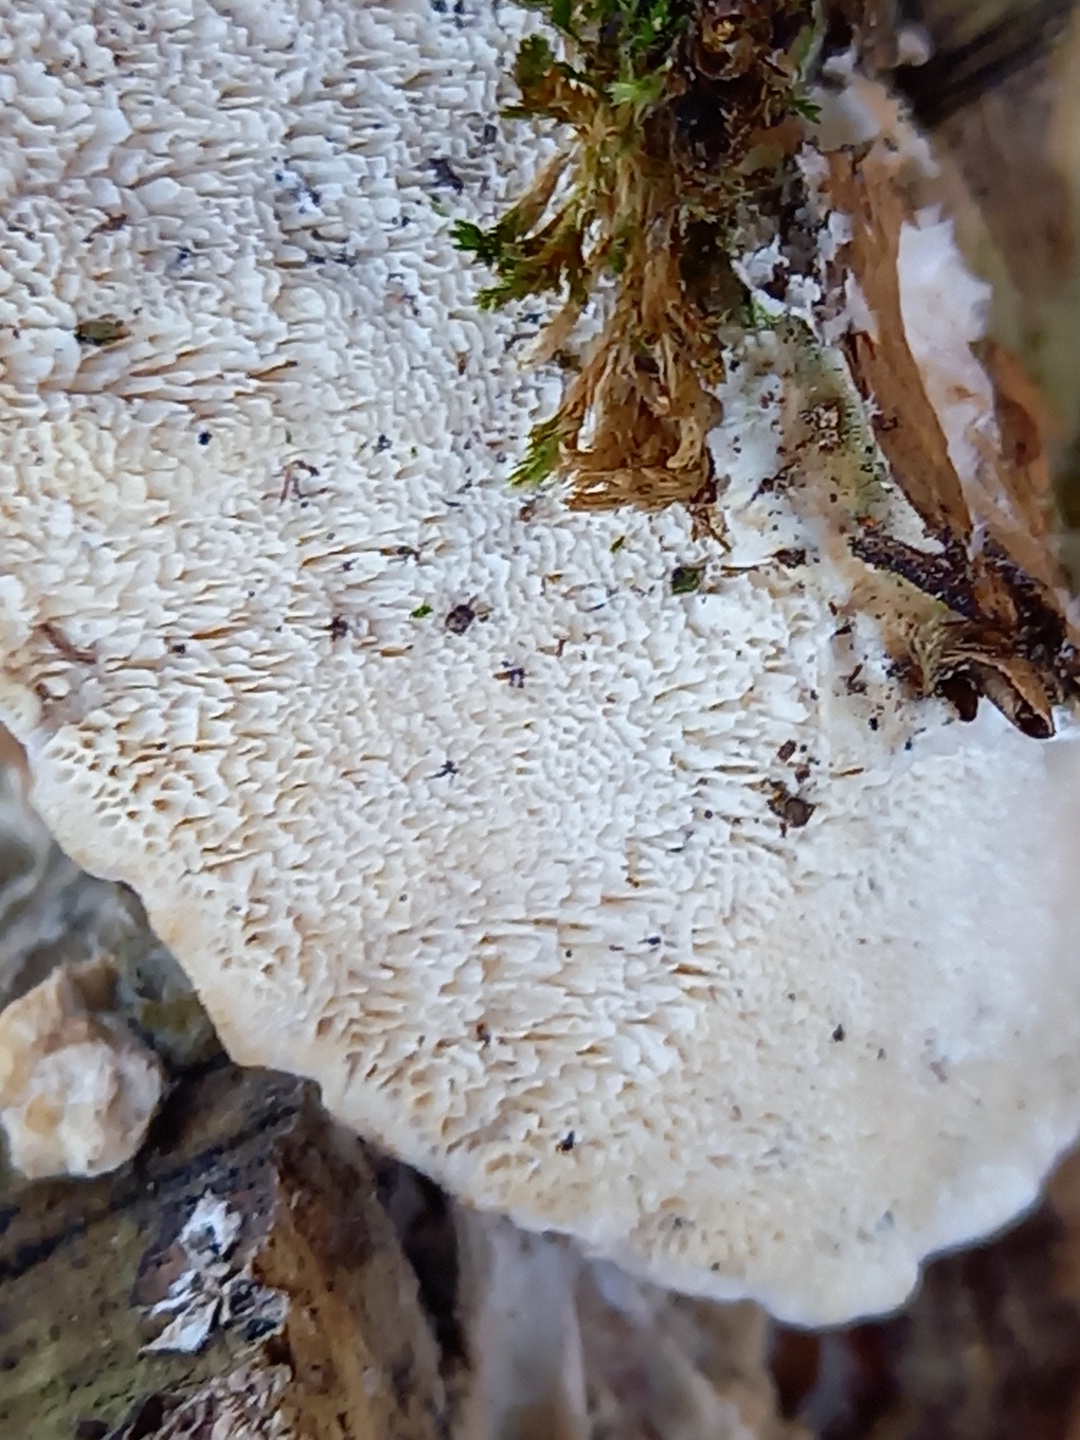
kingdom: Fungi
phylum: Basidiomycota
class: Agaricomycetes
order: Polyporales
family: Polyporaceae
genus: Trametes
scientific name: Trametes versicolor
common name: broget læderporesvamp
